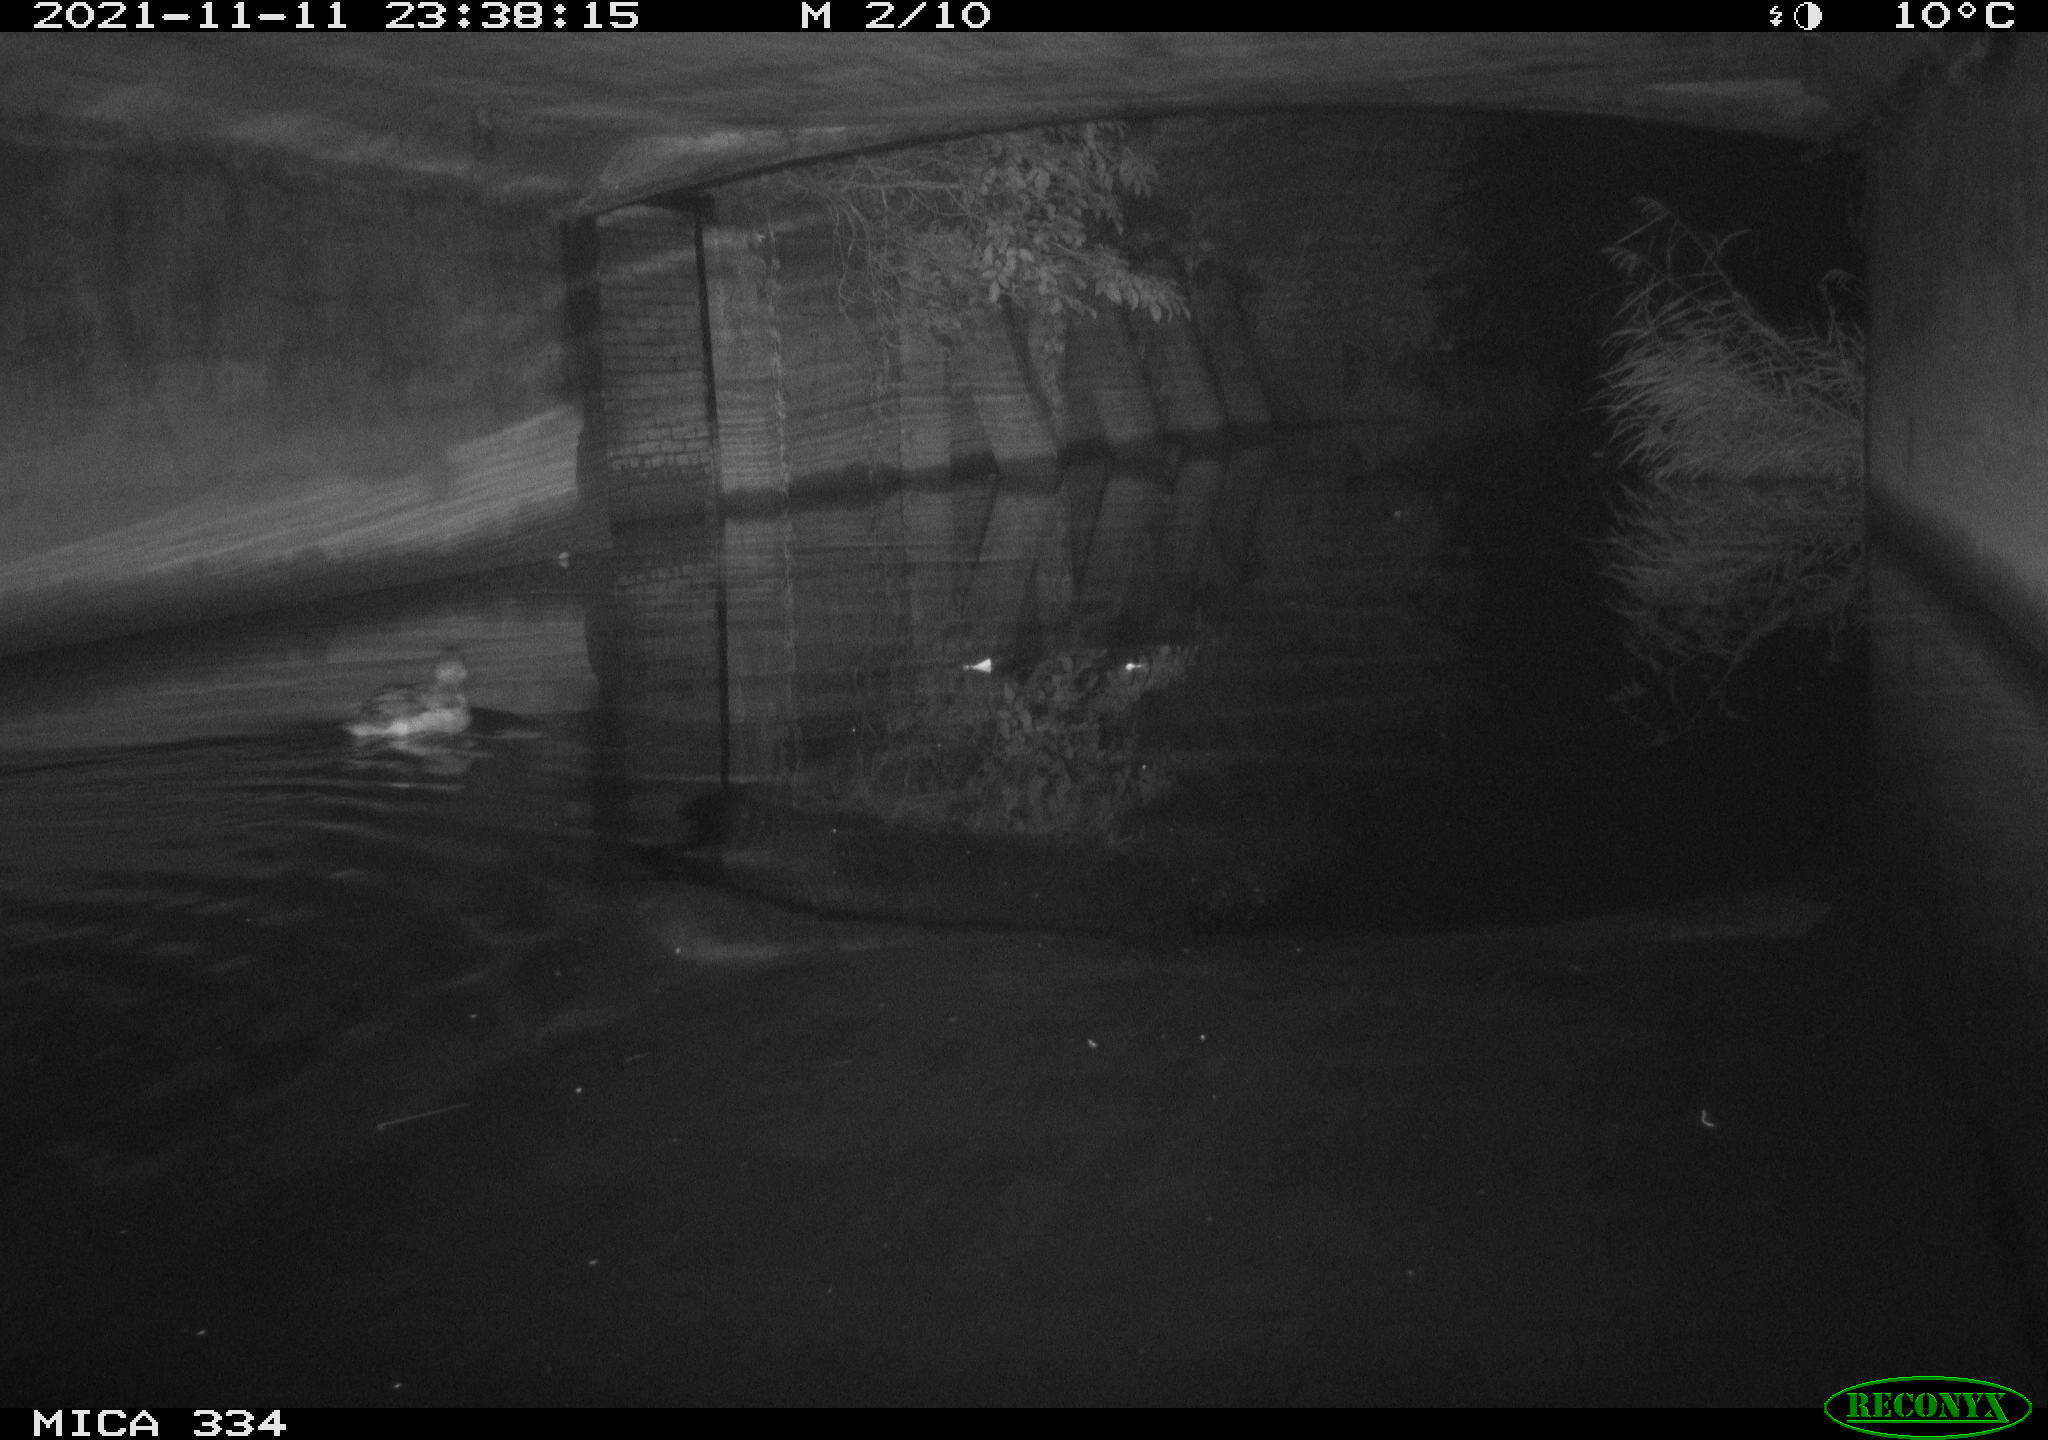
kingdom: Animalia
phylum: Chordata
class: Aves
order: Gruiformes
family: Rallidae
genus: Gallinula
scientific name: Gallinula chloropus
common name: Common moorhen
